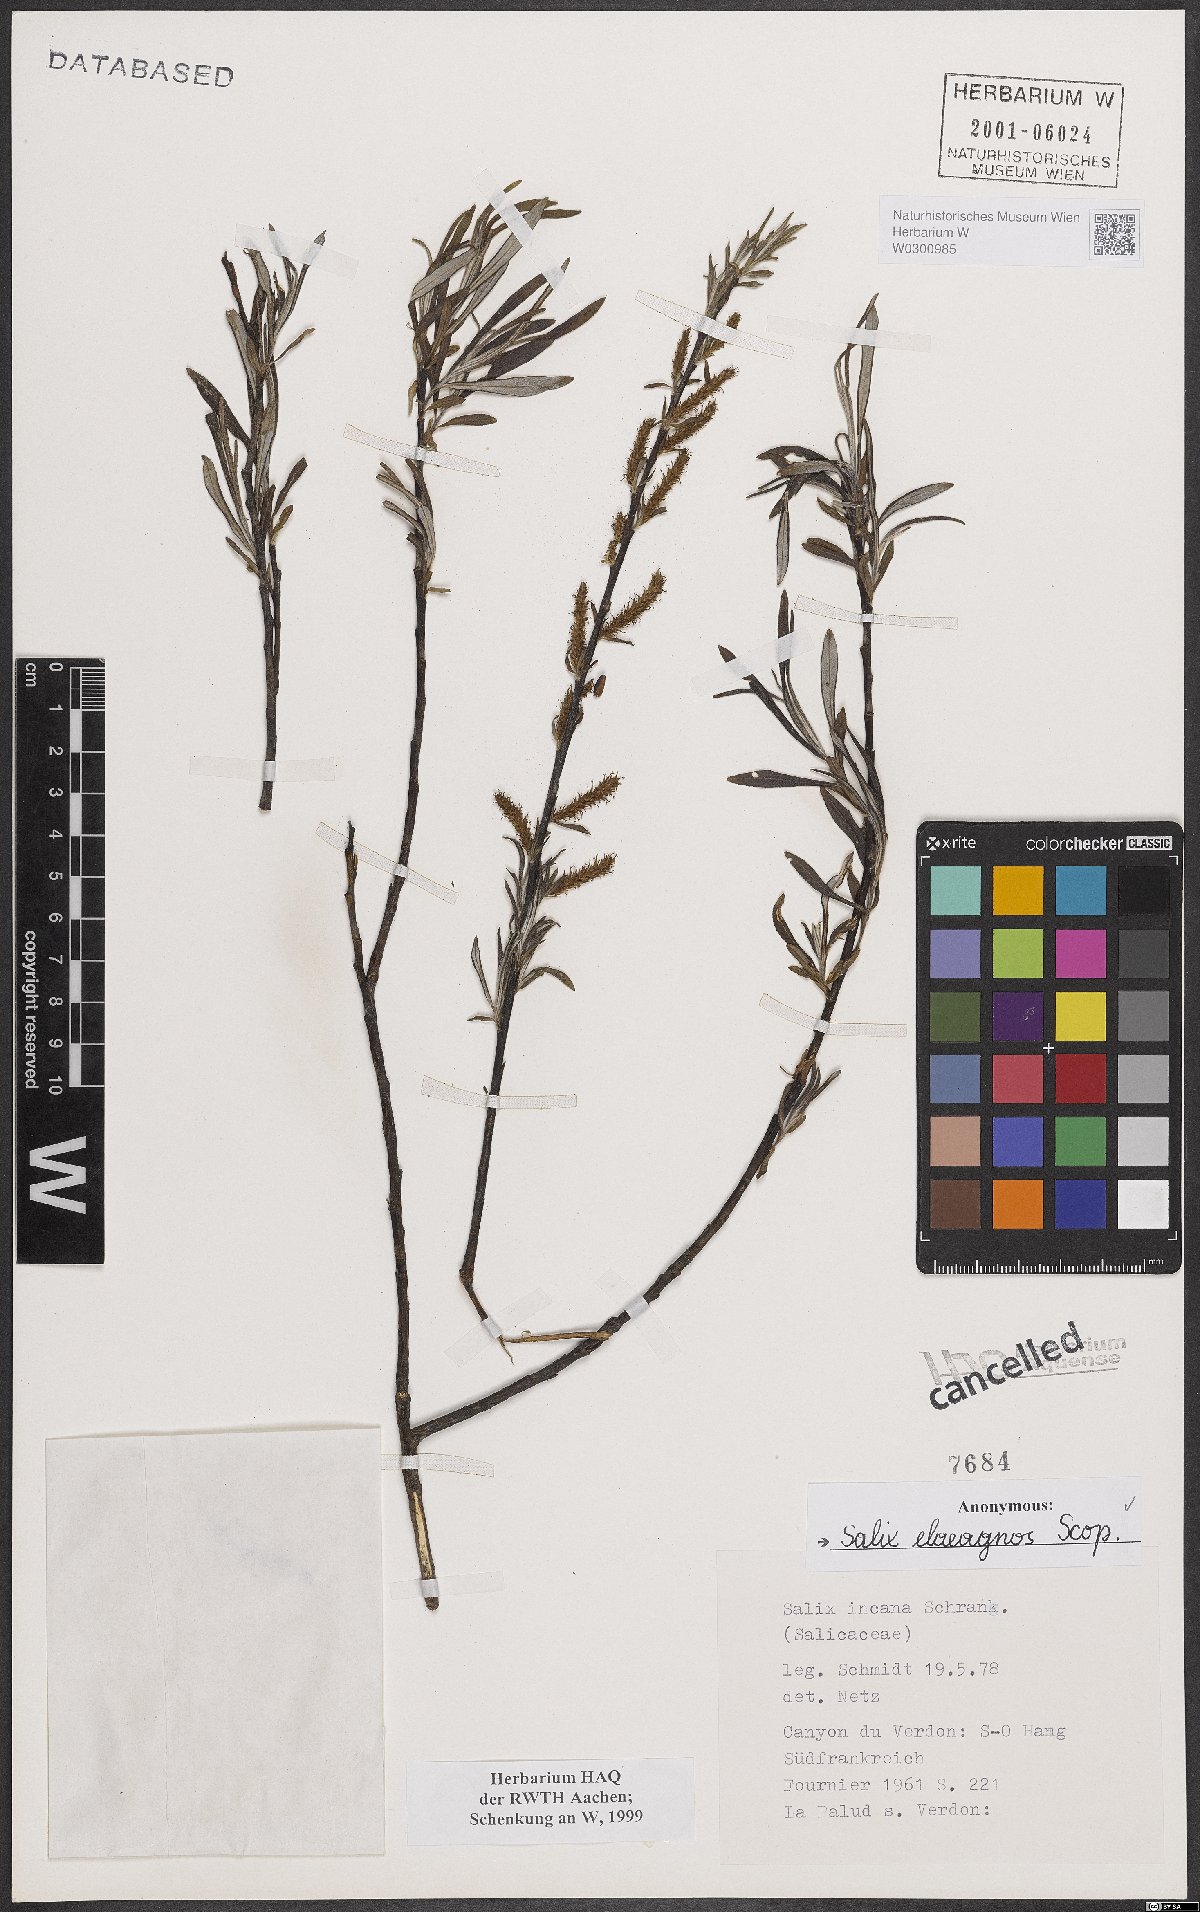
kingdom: Plantae
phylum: Tracheophyta
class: Magnoliopsida
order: Malpighiales
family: Salicaceae
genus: Salix
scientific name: Salix eleagnos
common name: Elaeagnus willow
